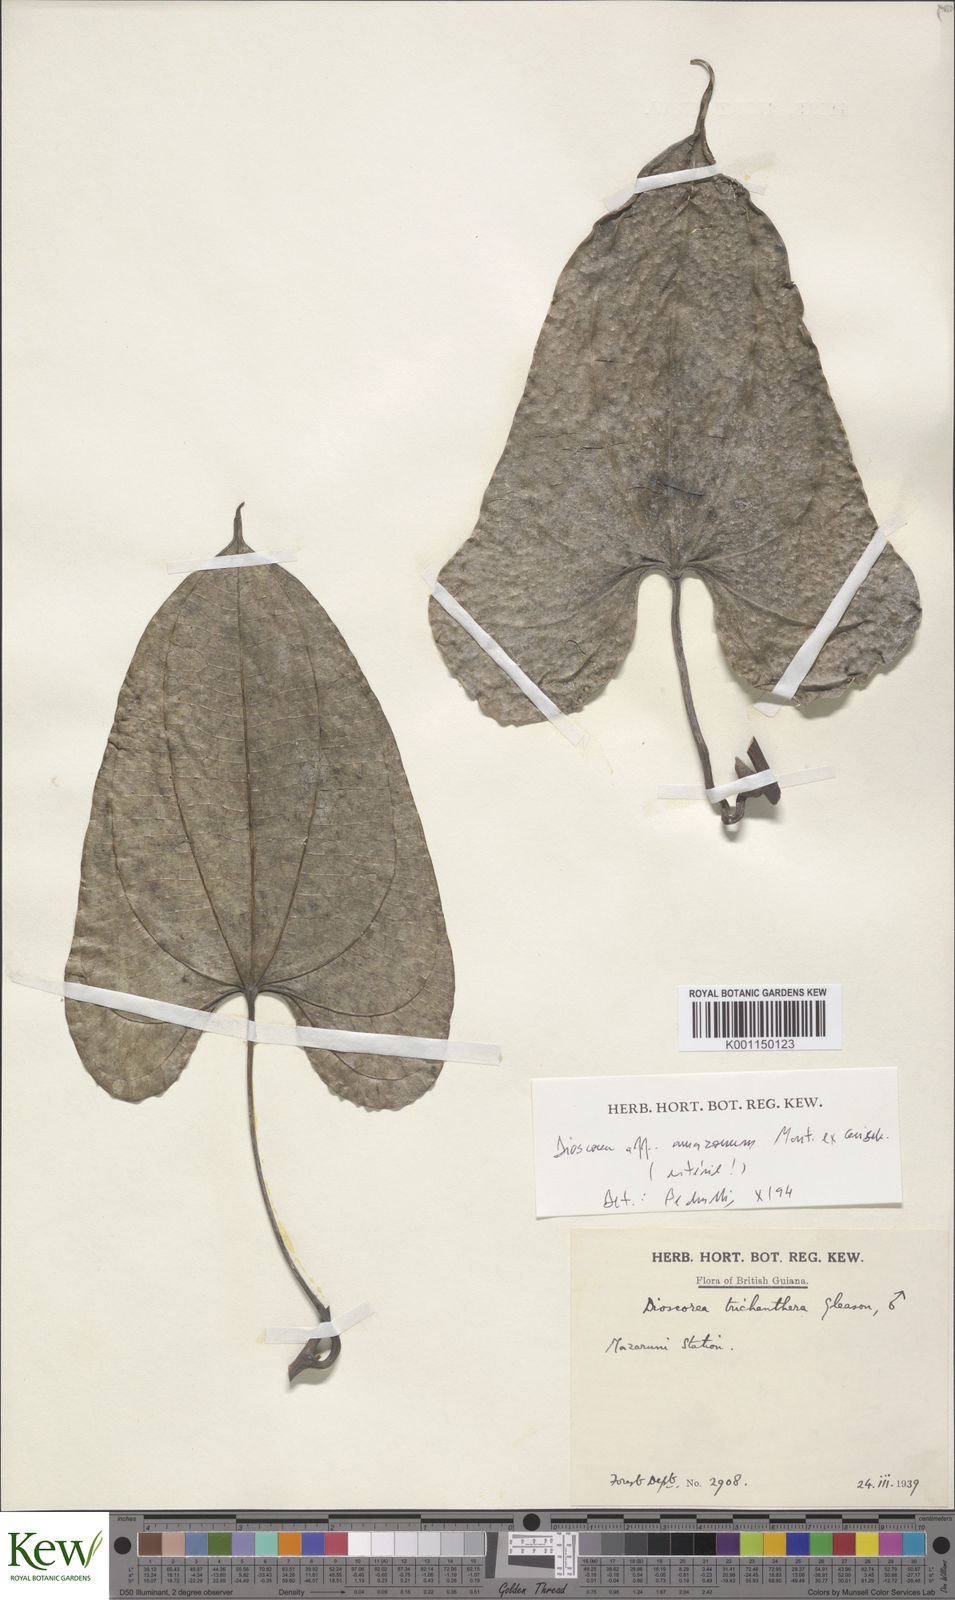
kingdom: Plantae
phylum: Tracheophyta
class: Liliopsida
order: Dioscoreales
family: Dioscoreaceae
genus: Dioscorea
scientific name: Dioscorea trichanthera
